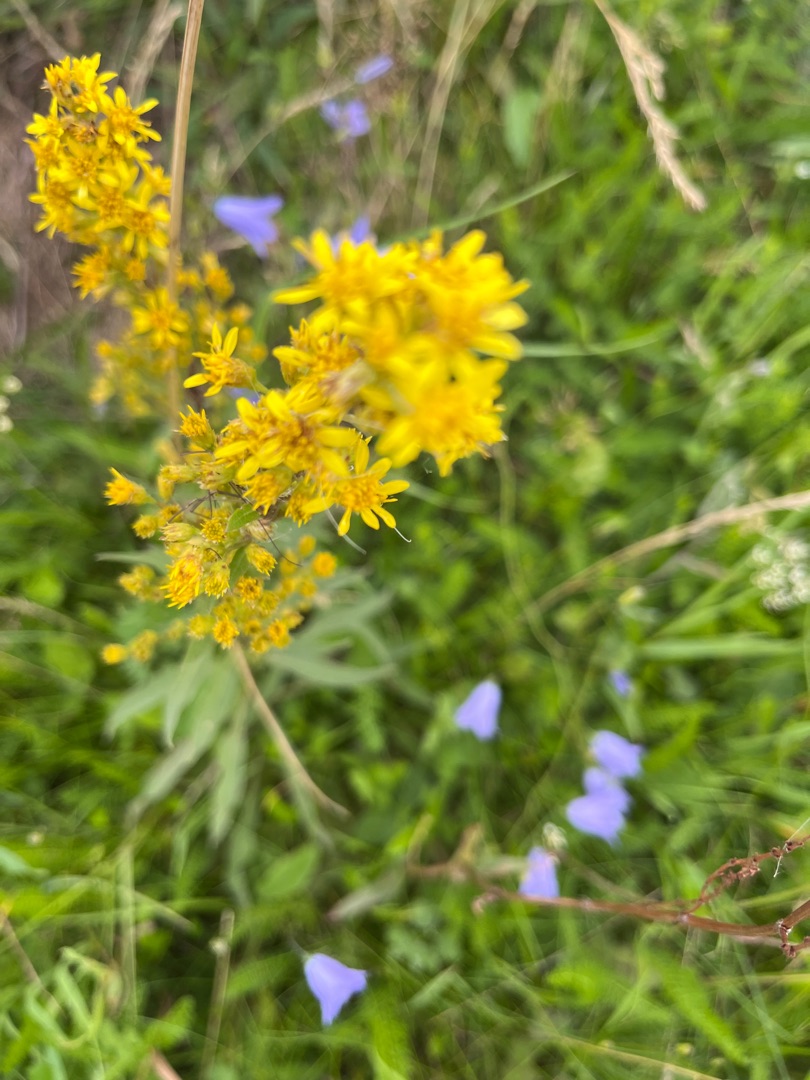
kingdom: Plantae
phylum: Tracheophyta
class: Magnoliopsida
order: Asterales
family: Asteraceae
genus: Solidago
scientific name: Solidago virgaurea
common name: Almindelig gyldenris
